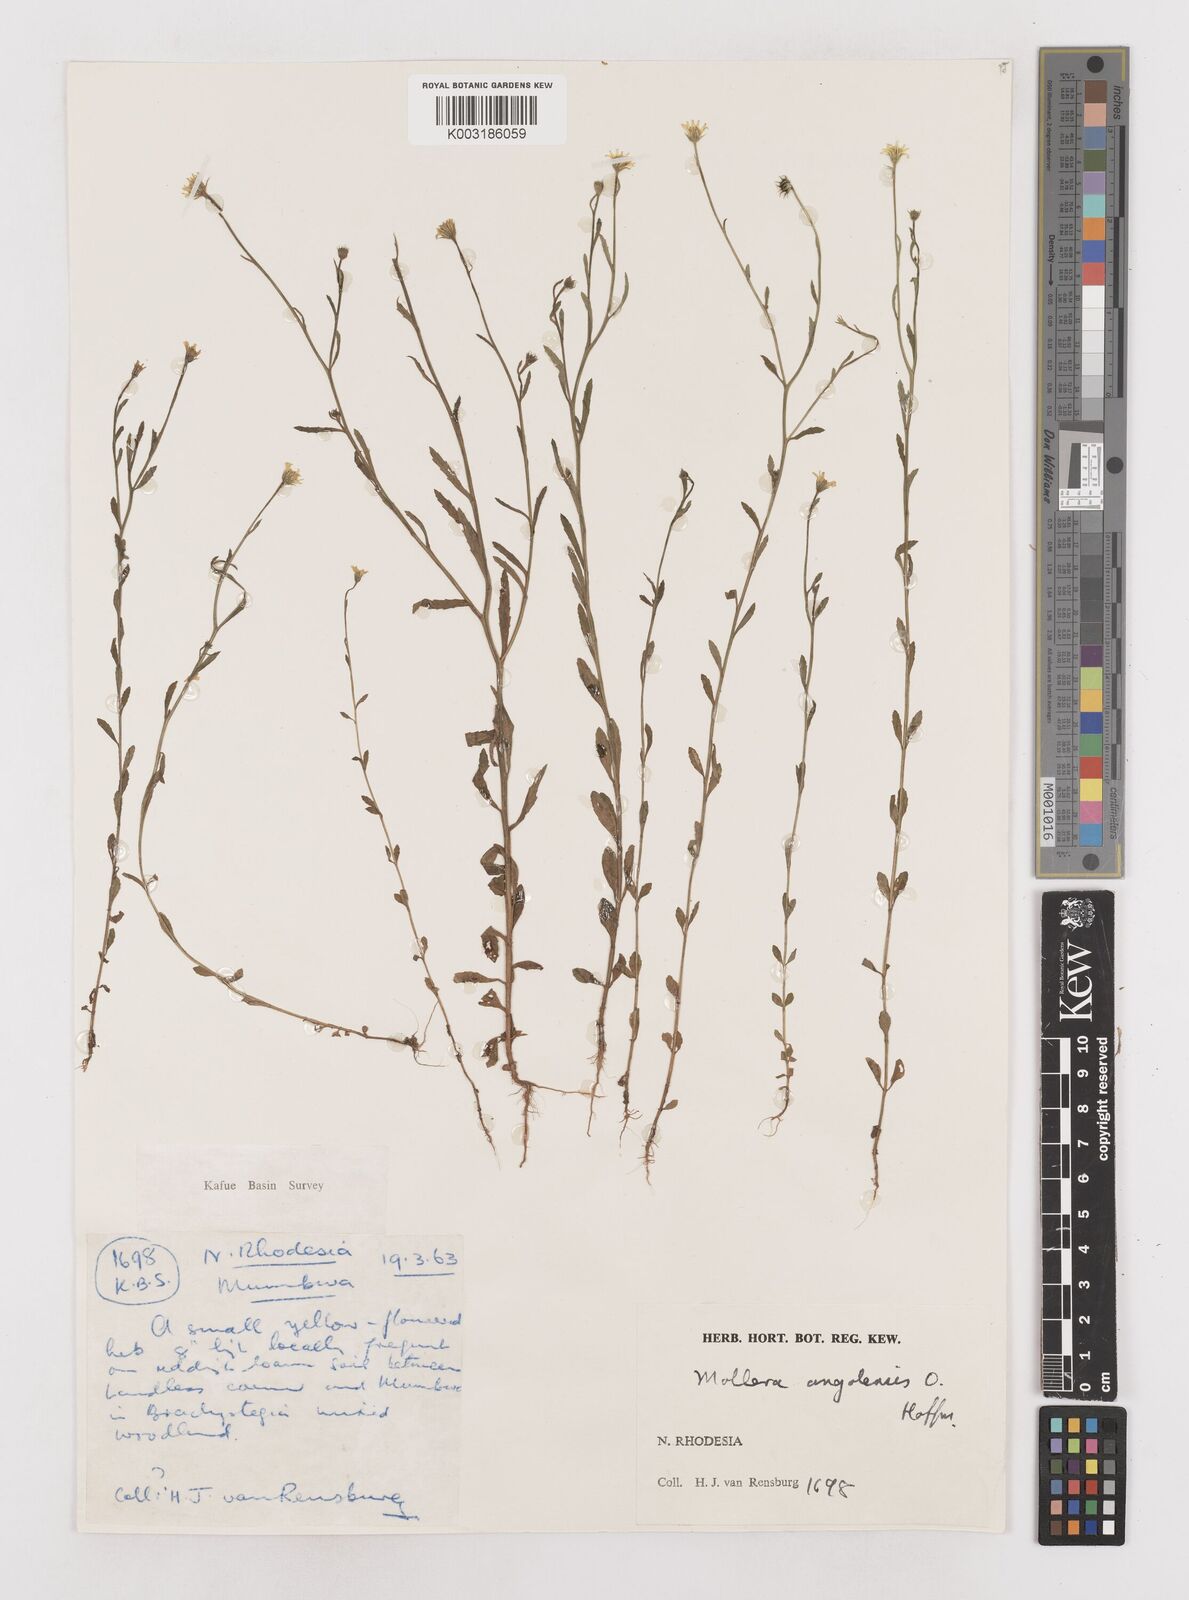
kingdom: Plantae
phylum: Tracheophyta
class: Magnoliopsida
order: Asterales
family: Asteraceae
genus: Calostephane
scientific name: Calostephane angolensis
